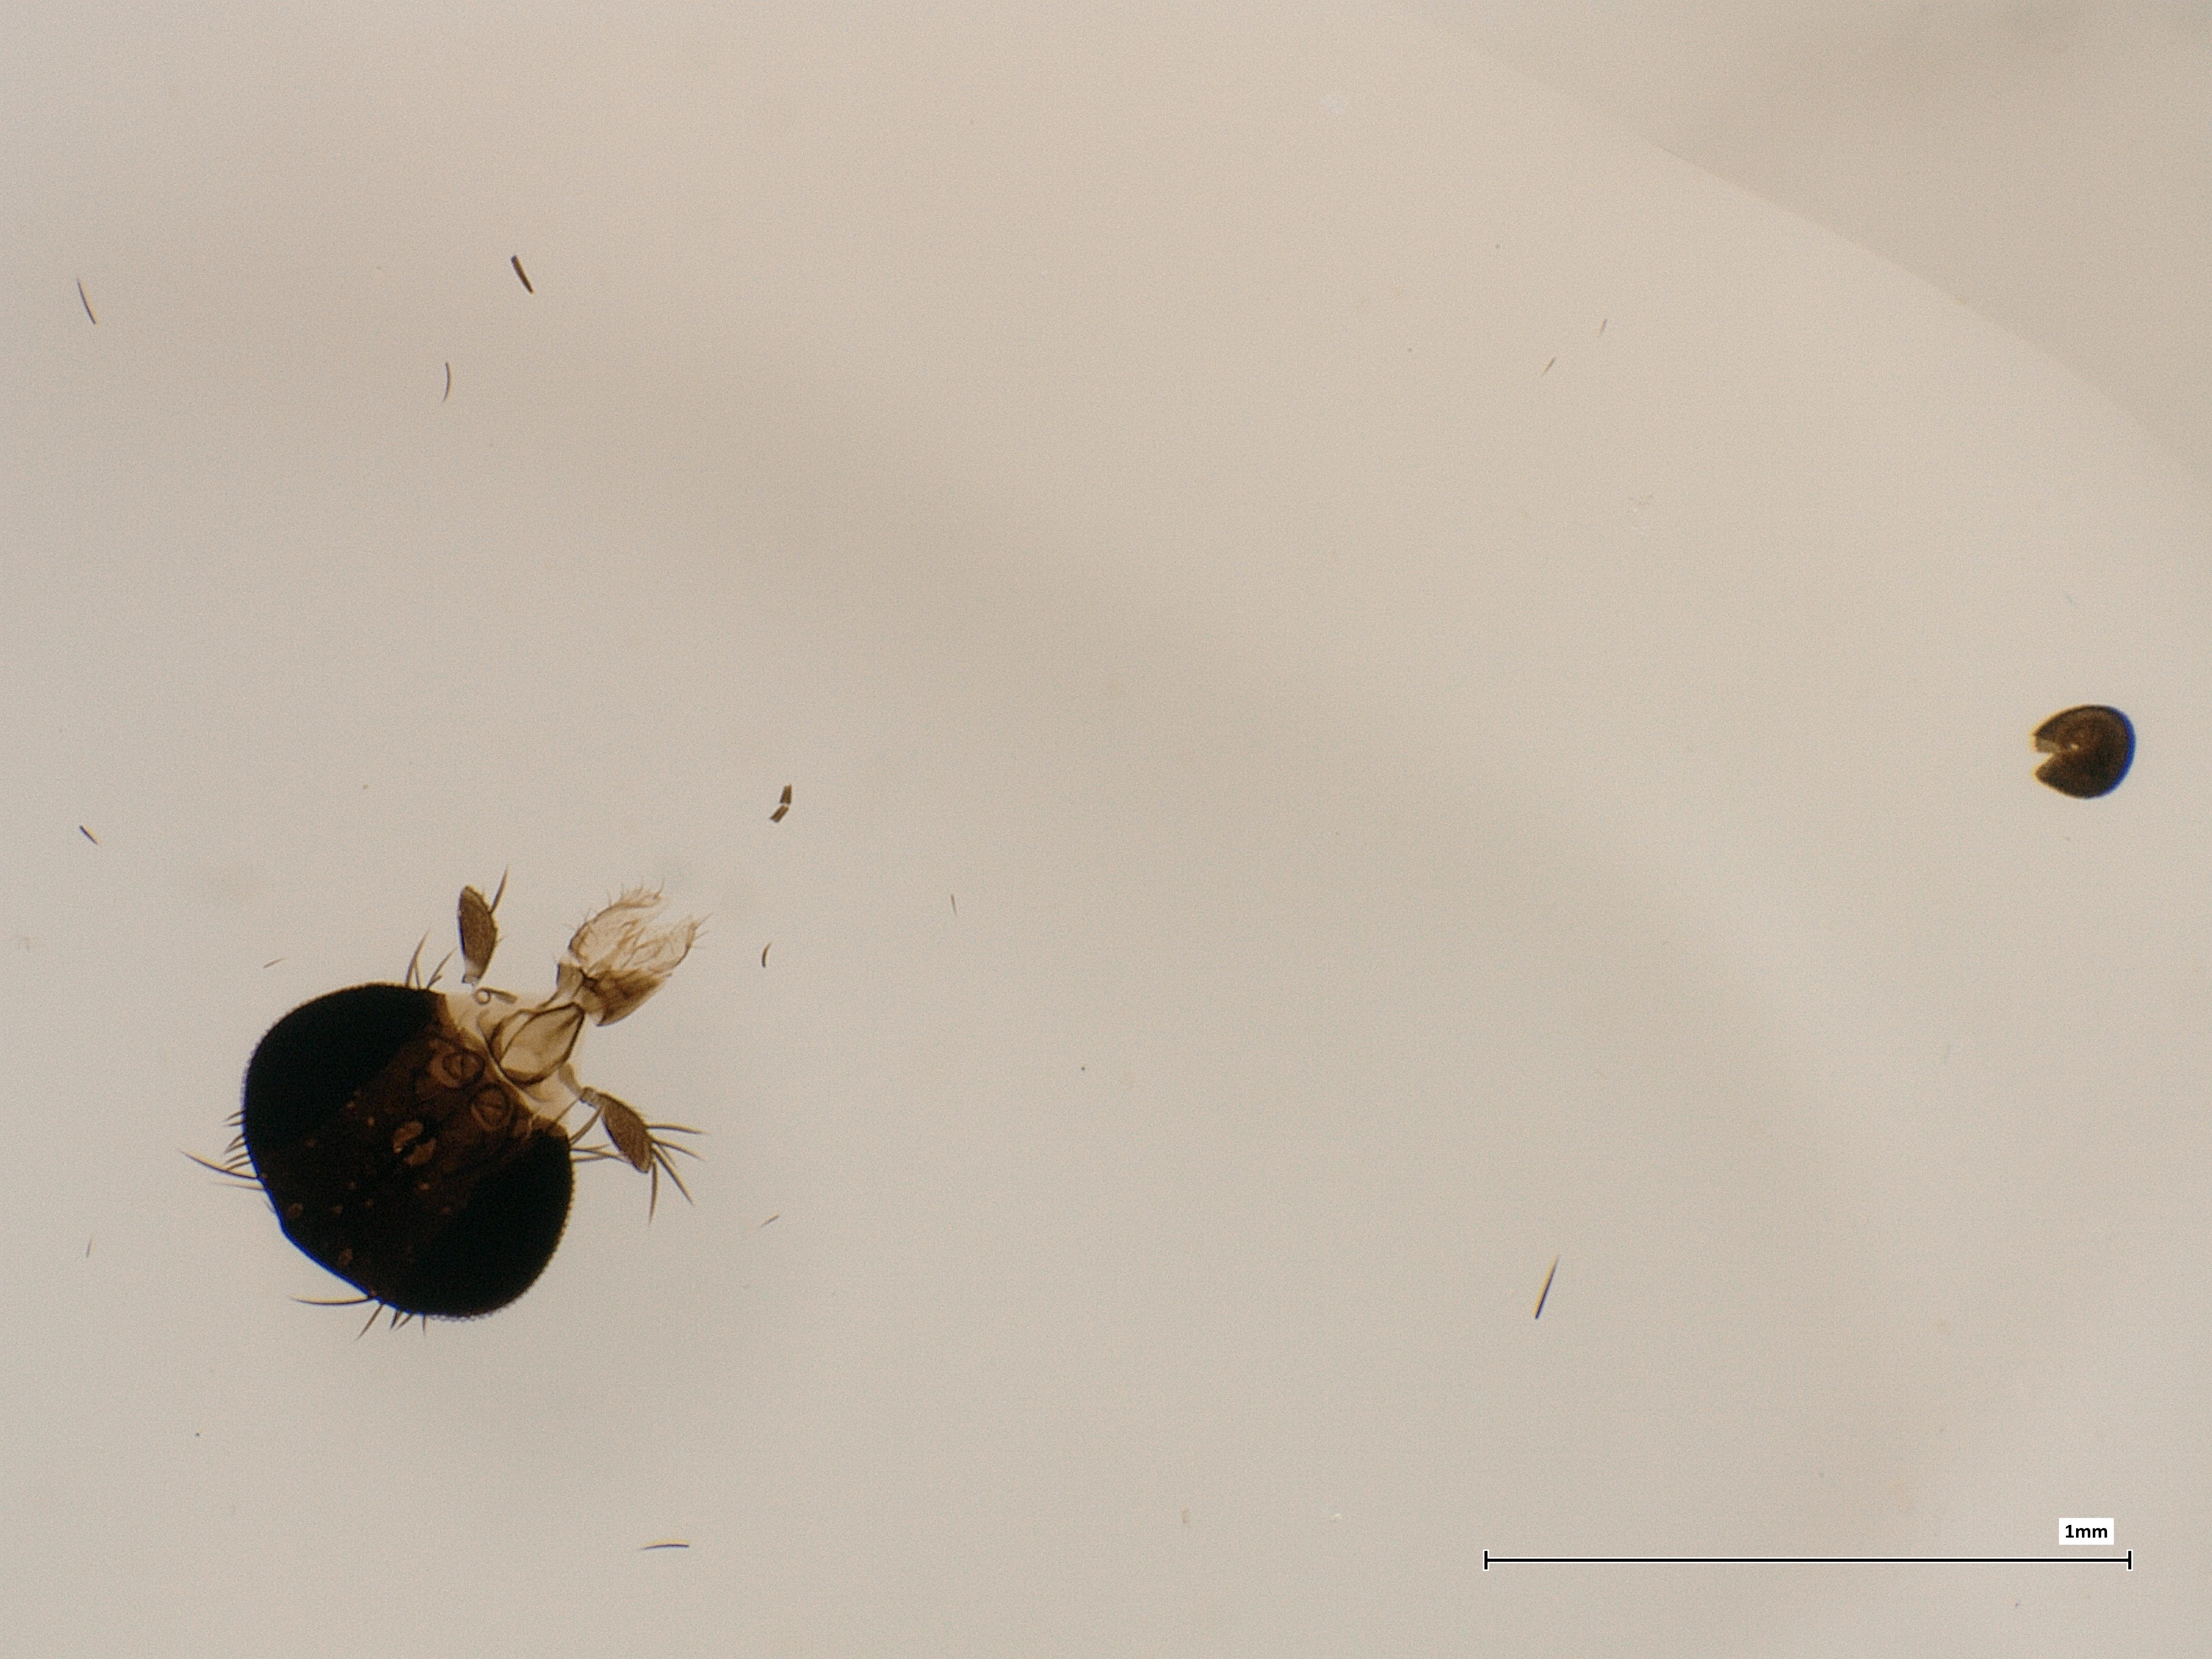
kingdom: Animalia
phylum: Arthropoda
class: Insecta
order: Diptera
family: Phoridae
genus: Megaselia
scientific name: Megaselia conformis
